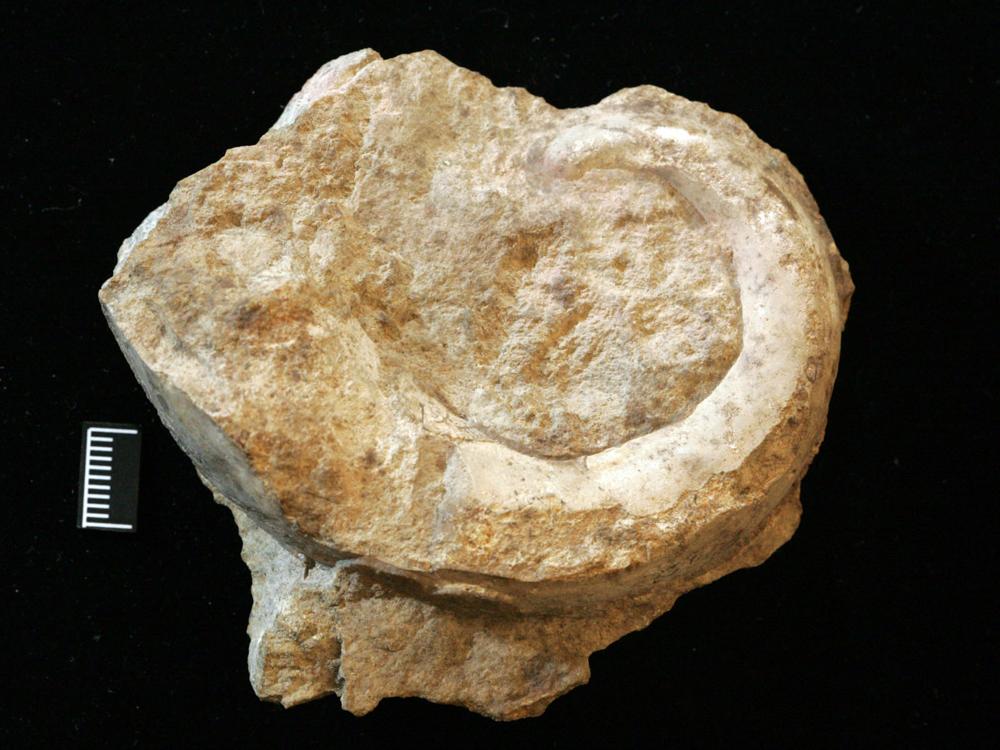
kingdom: Animalia
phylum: Mollusca
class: Gastropoda
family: Ophiletidae
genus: Asgardaspira
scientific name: Asgardaspira Lytospira evolvens
